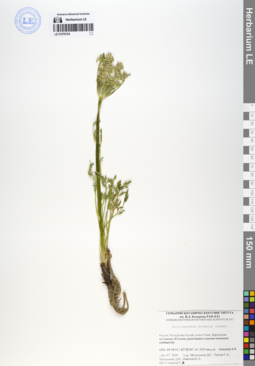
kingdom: Plantae
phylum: Tracheophyta
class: Magnoliopsida
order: Apiales
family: Apiaceae
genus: Aulacospermum
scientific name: Aulacospermum anomalum
